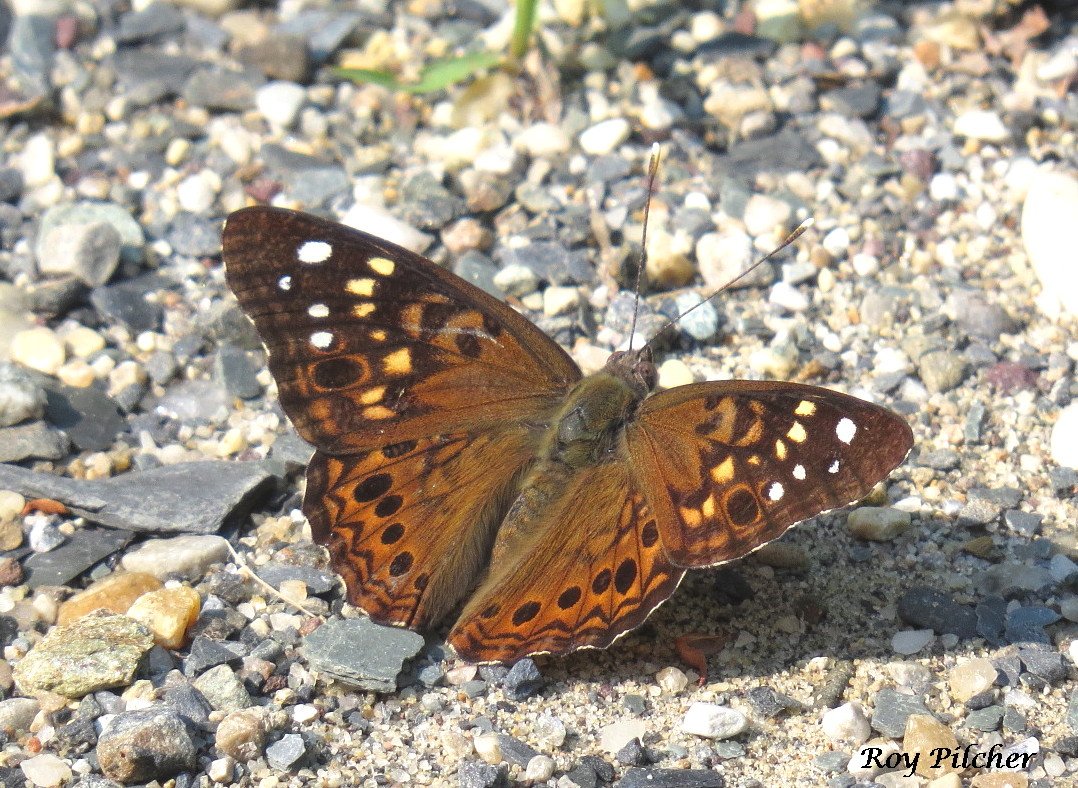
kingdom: Animalia
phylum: Arthropoda
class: Insecta
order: Lepidoptera
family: Nymphalidae
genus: Asterocampa
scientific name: Asterocampa celtis
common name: Hackberry Emperor
